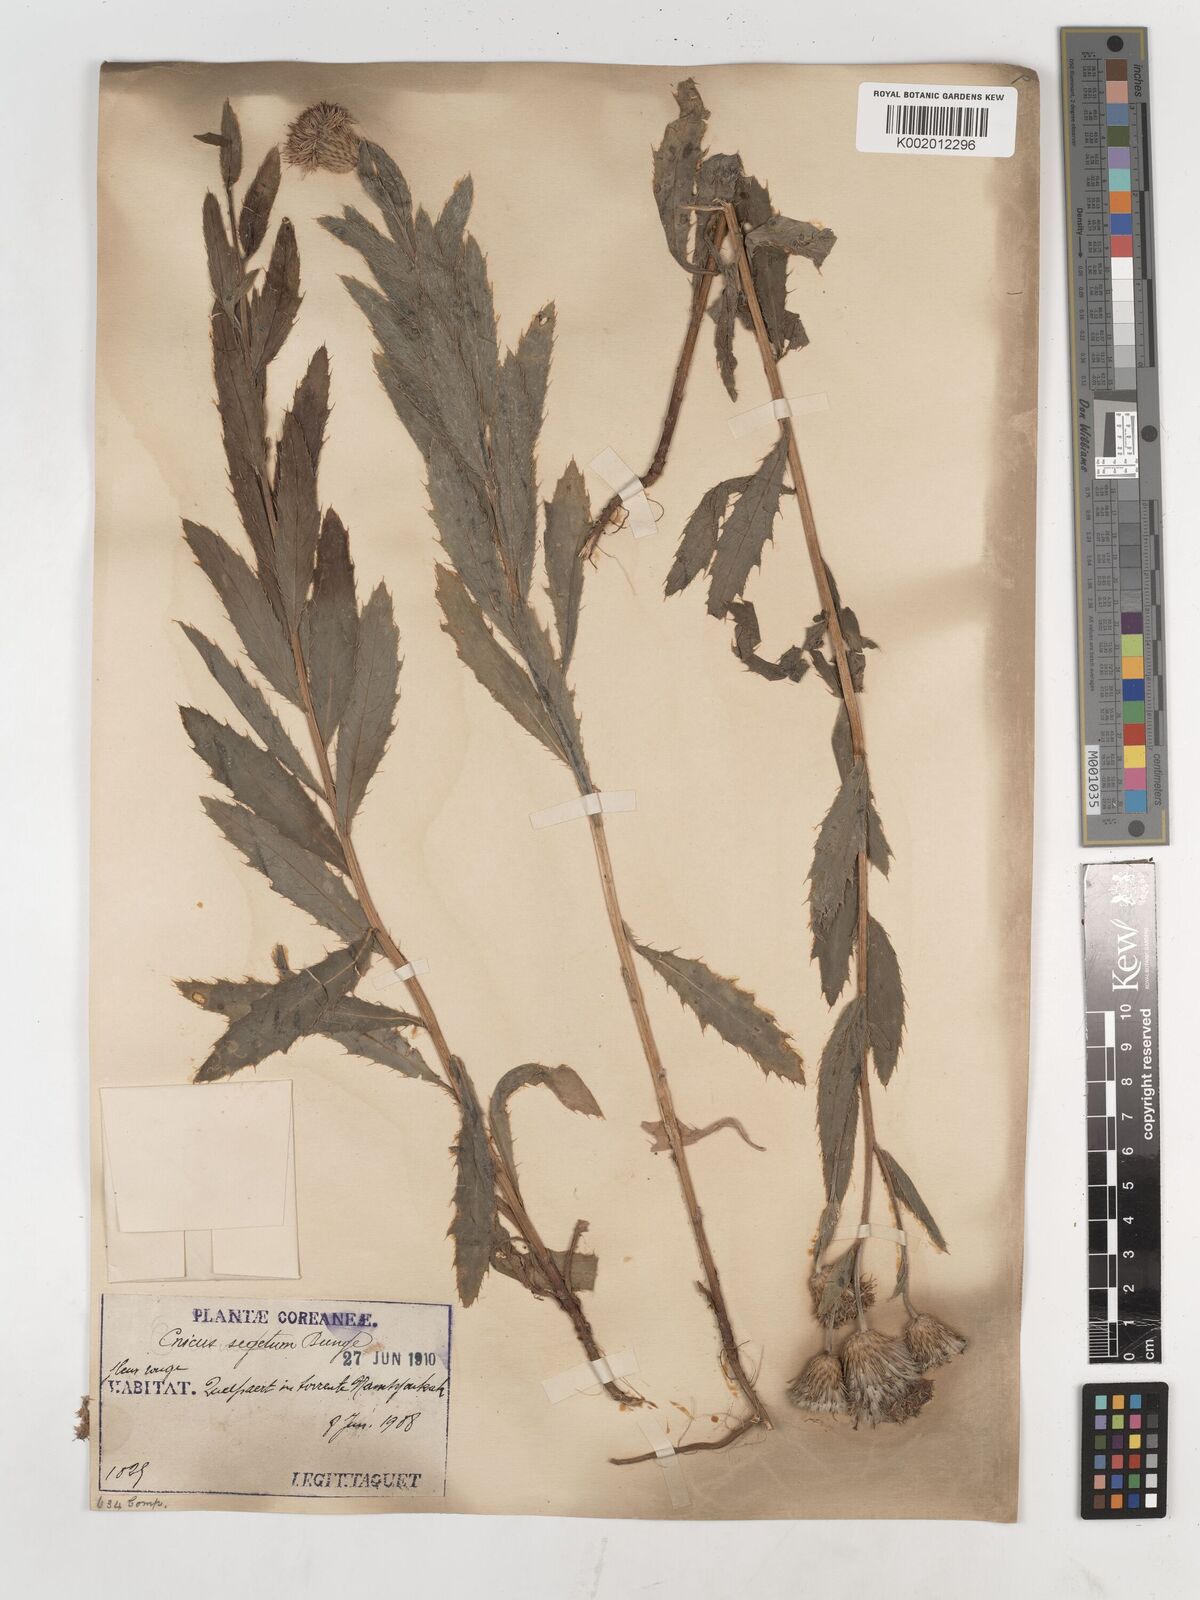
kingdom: Plantae
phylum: Tracheophyta
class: Magnoliopsida
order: Asterales
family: Asteraceae
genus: Cirsium
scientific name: Cirsium arvense
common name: Creeping thistle
